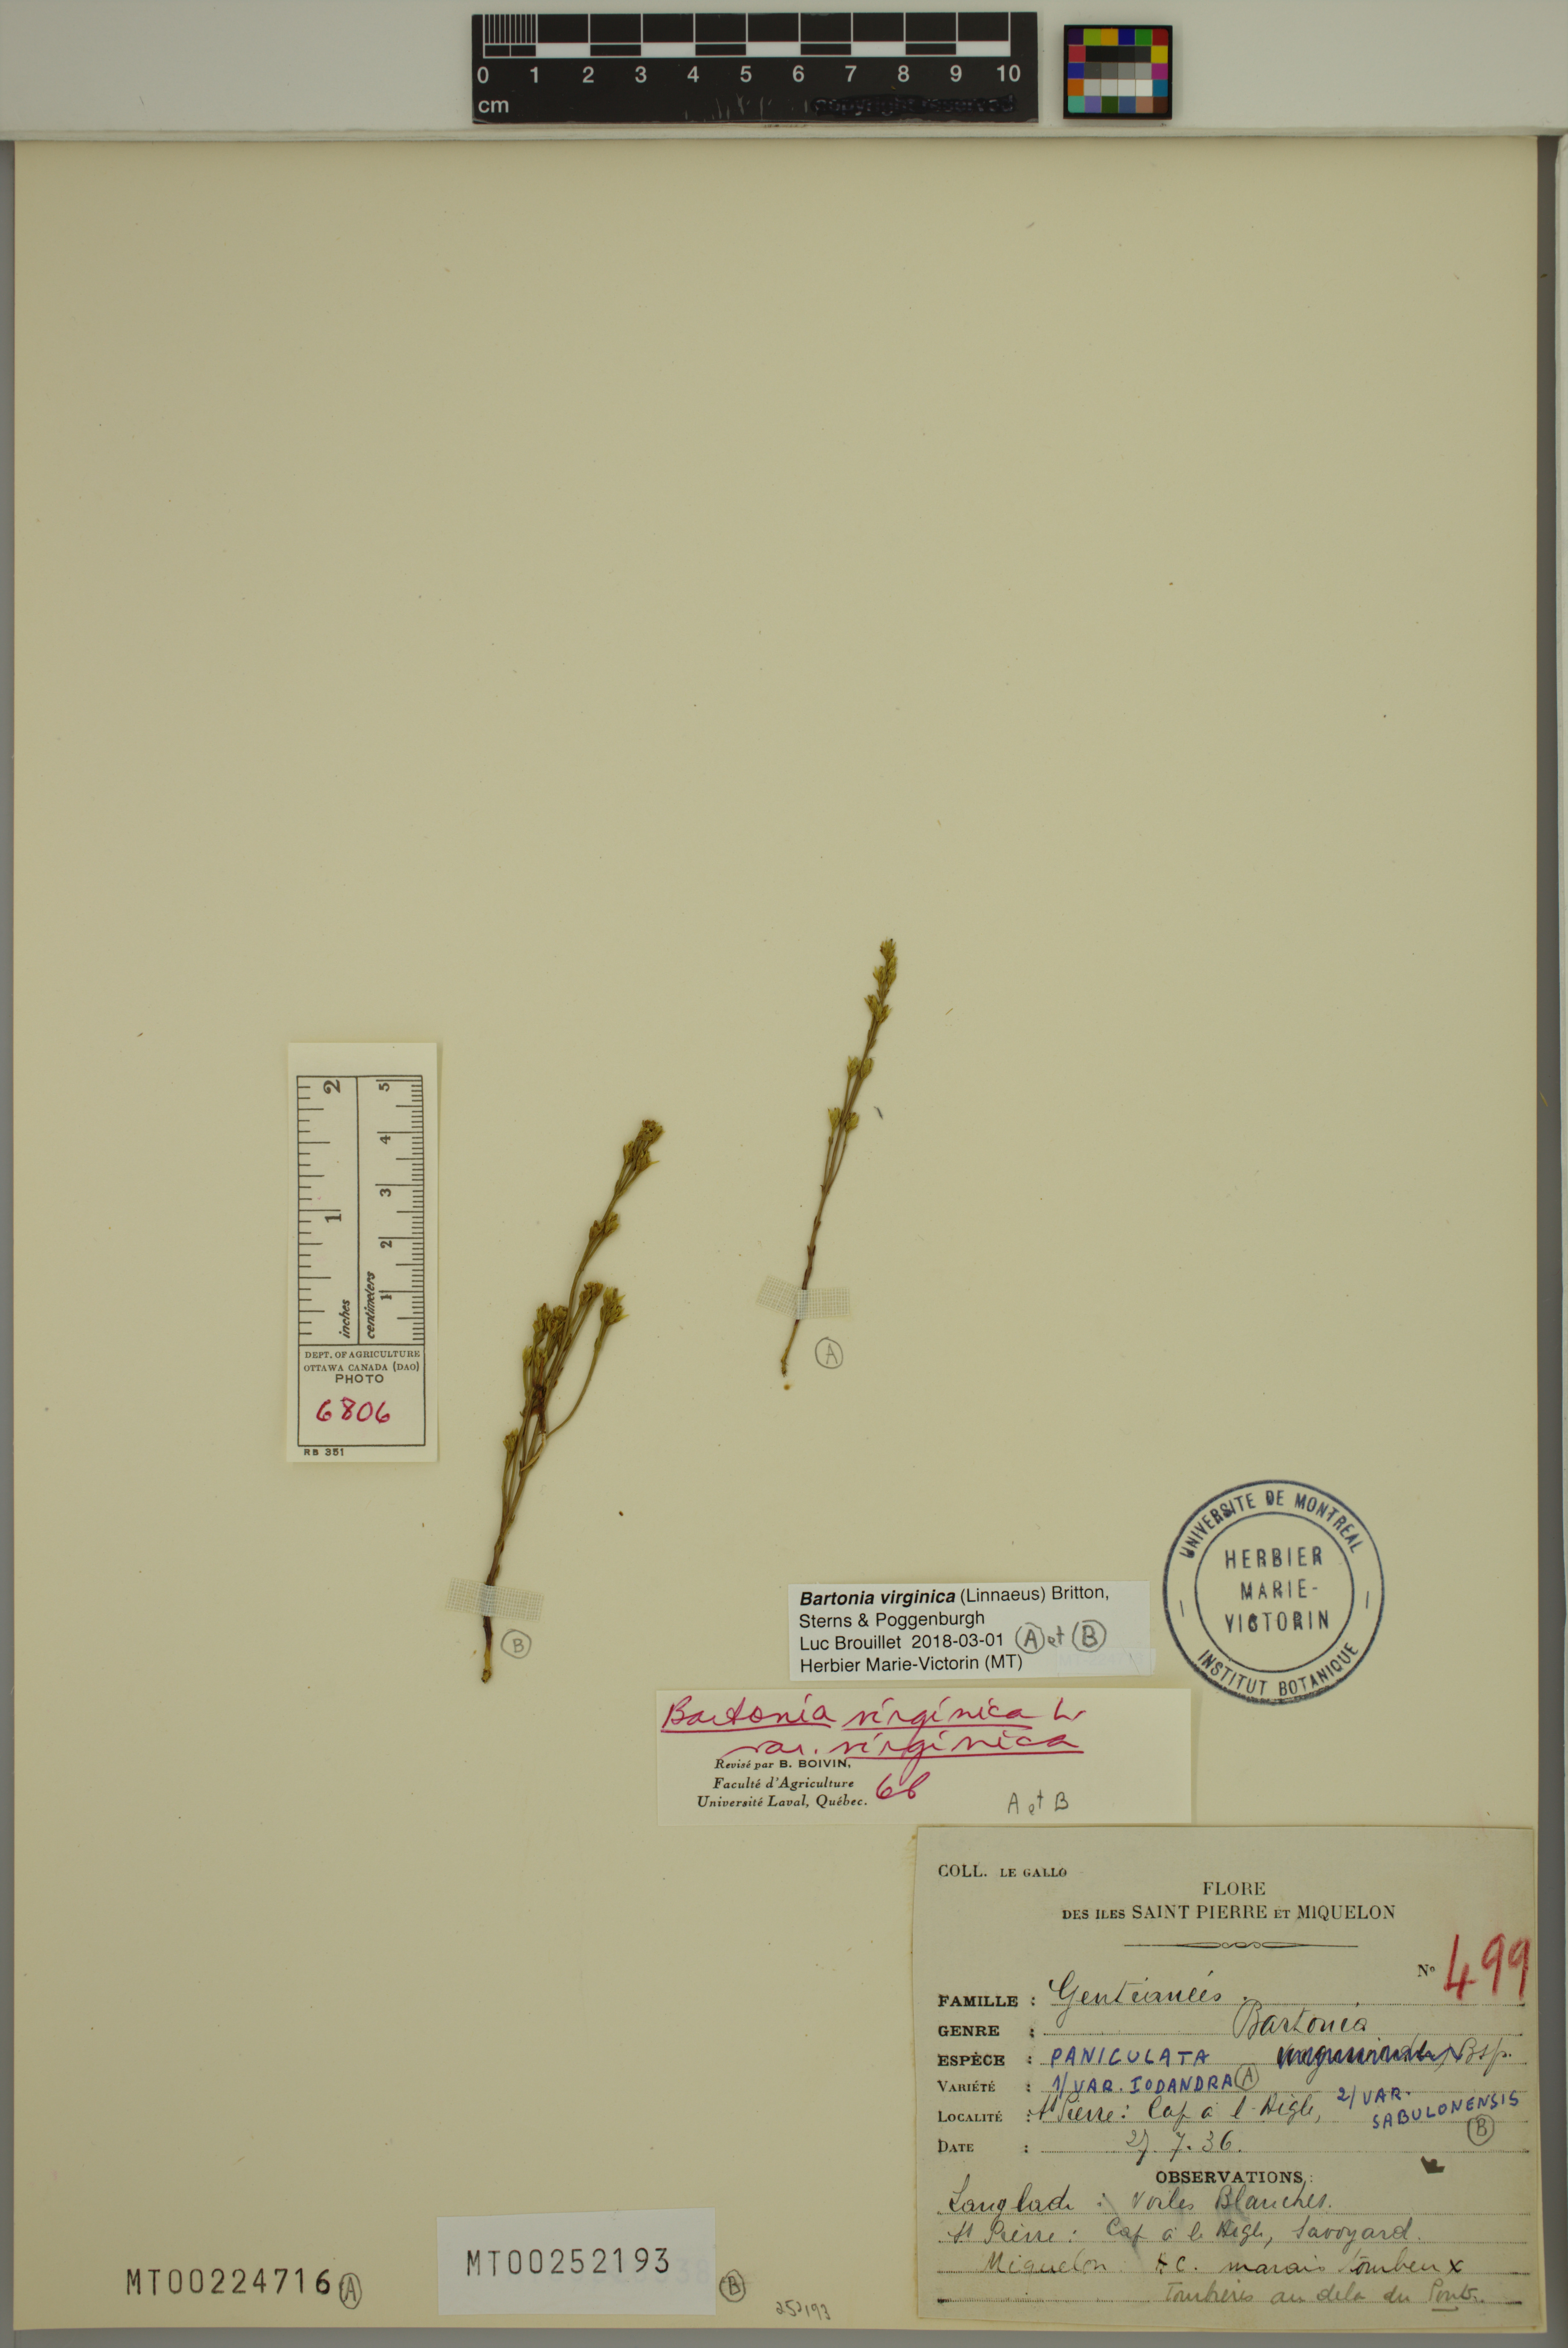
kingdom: Plantae
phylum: Tracheophyta
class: Magnoliopsida
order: Gentianales
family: Gentianaceae
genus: Bartonia
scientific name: Bartonia virginica
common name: Yellow bartonia
